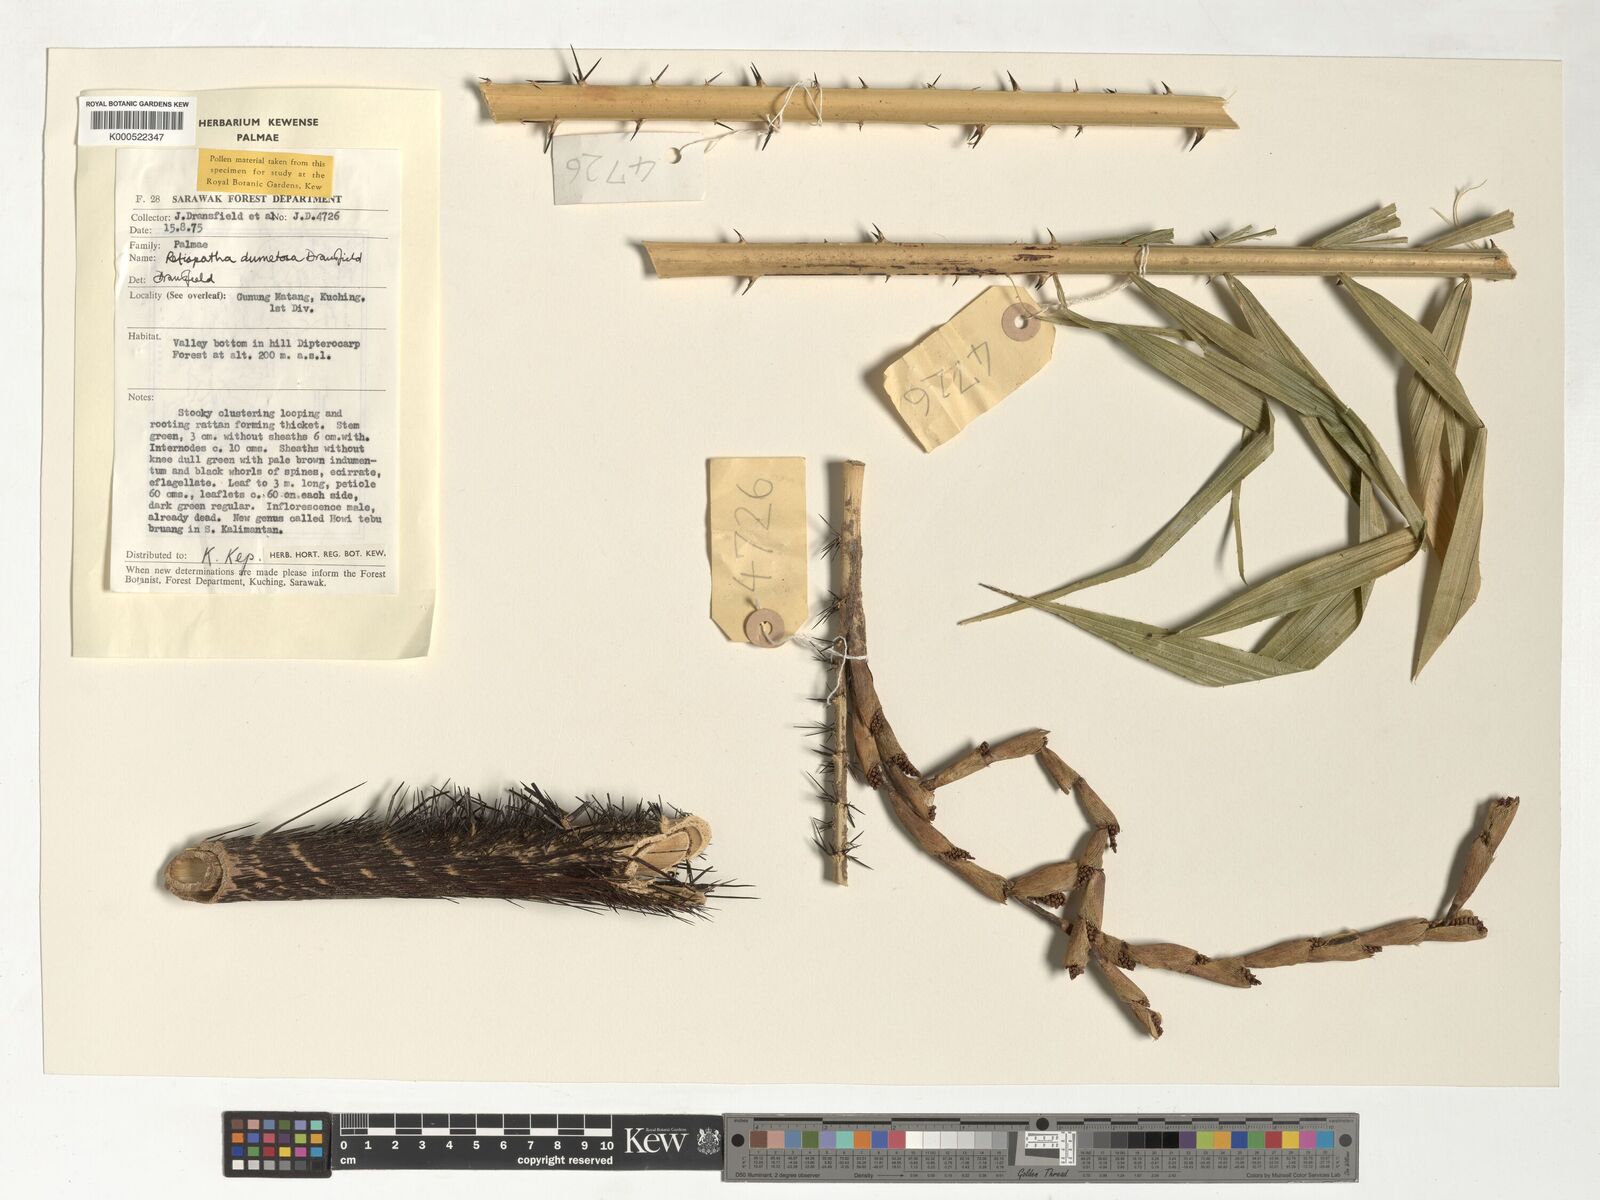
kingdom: Plantae
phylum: Tracheophyta
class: Liliopsida
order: Arecales
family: Arecaceae
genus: Calamus
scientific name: Calamus dumetosus
